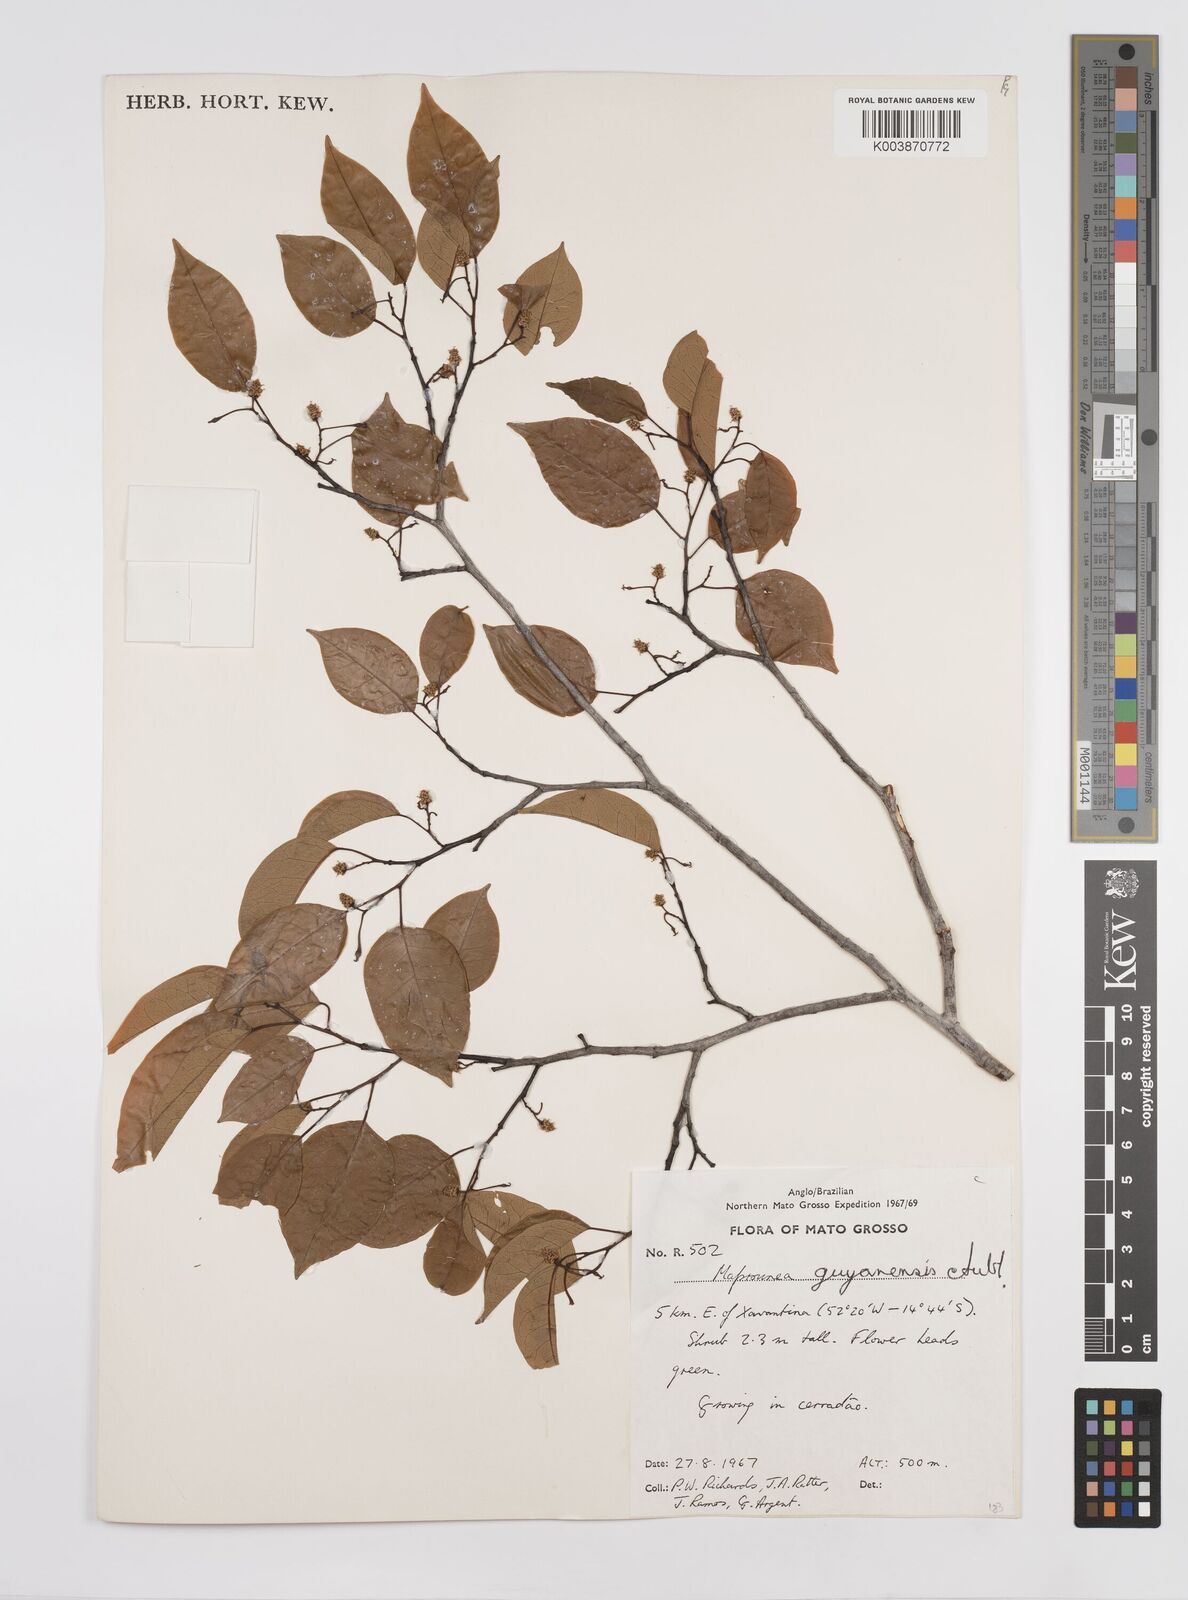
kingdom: Plantae
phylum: Tracheophyta
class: Magnoliopsida
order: Malpighiales
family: Euphorbiaceae
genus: Maprounea
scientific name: Maprounea guianensis
